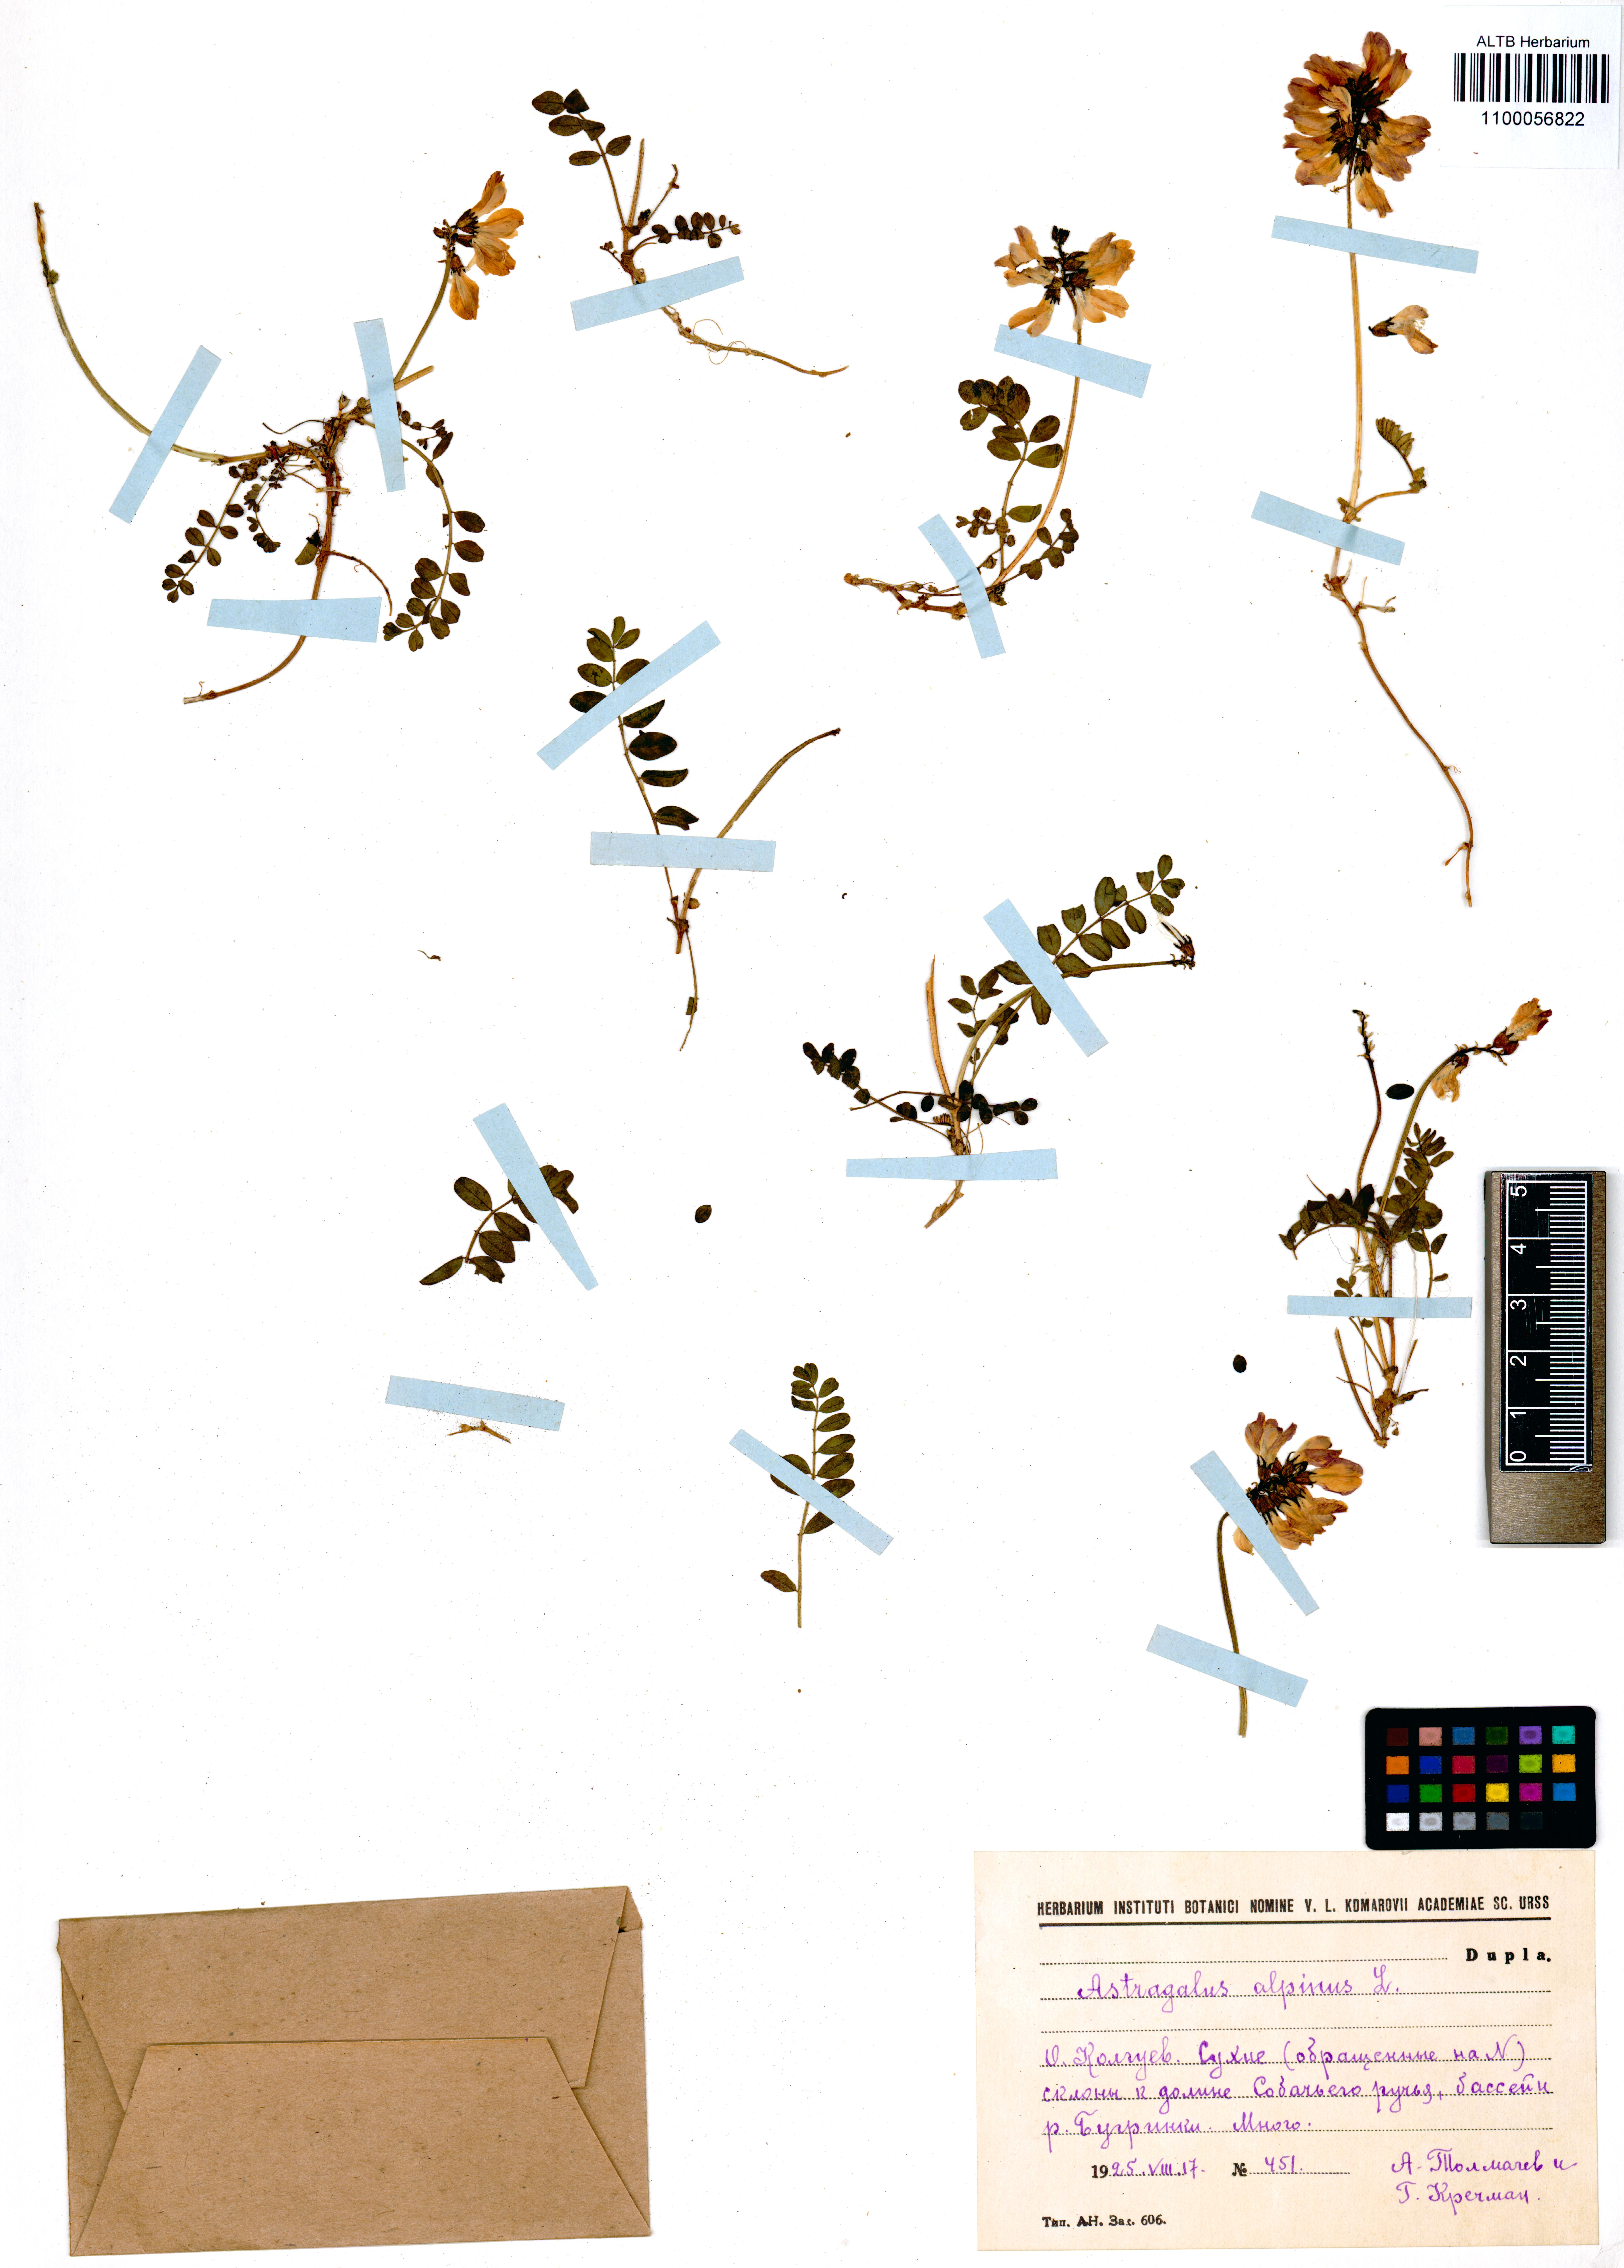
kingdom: Plantae
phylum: Tracheophyta
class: Magnoliopsida
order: Fabales
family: Fabaceae
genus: Astragalus
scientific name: Astragalus alpinus
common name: Alpine milk-vetch
